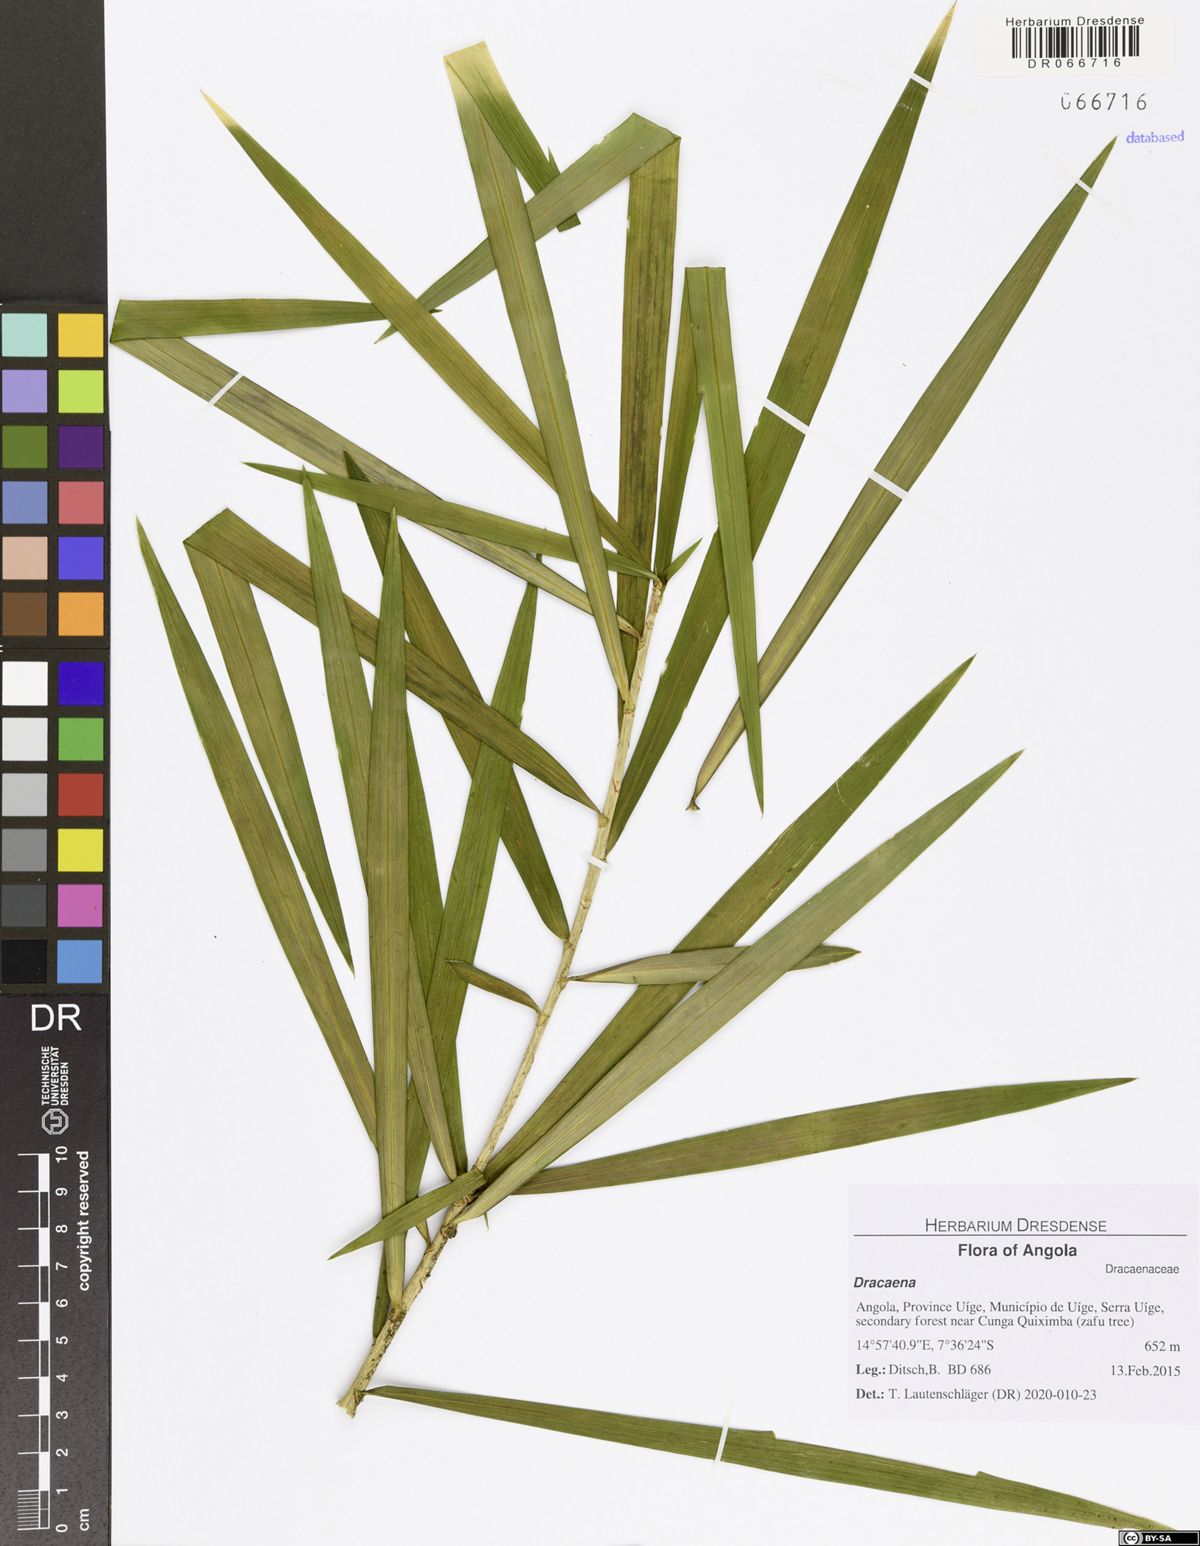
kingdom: Plantae
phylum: Tracheophyta
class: Liliopsida
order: Asparagales
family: Asparagaceae
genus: Dracaena
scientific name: Dracaena
